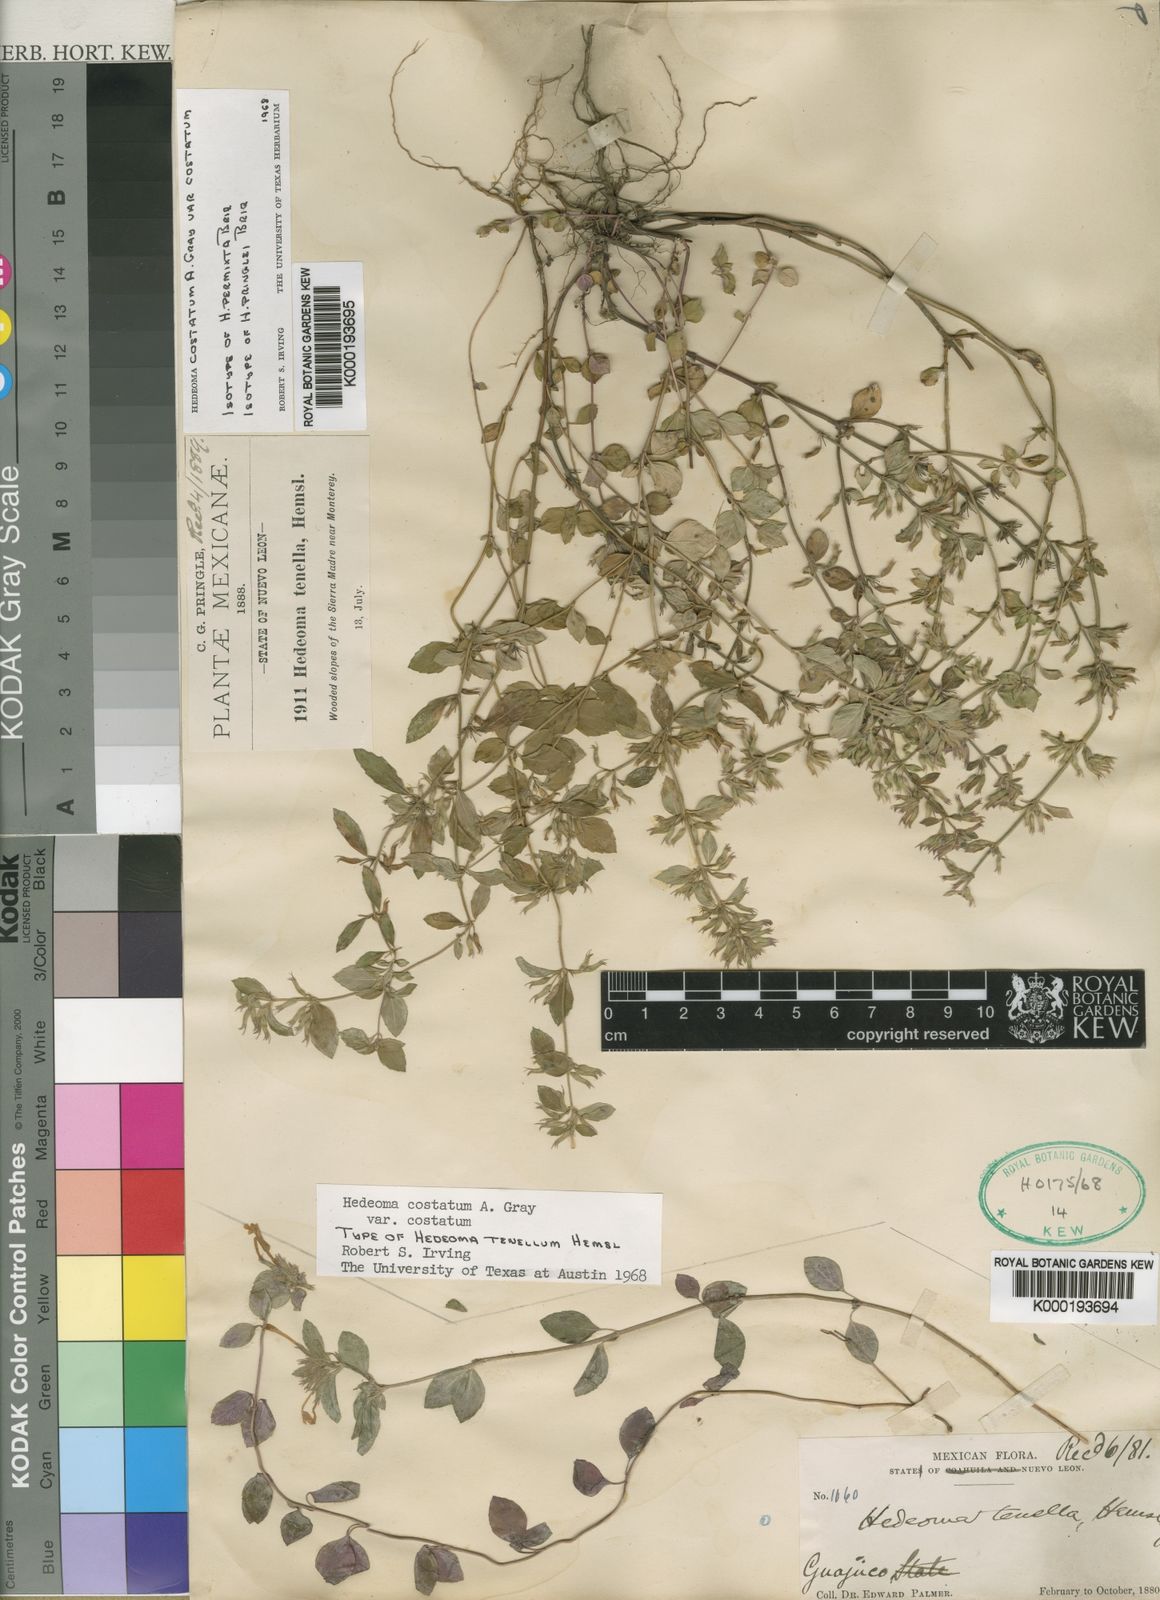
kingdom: Plantae
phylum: Tracheophyta
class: Magnoliopsida
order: Lamiales
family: Lamiaceae
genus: Hedeoma
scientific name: Hedeoma
